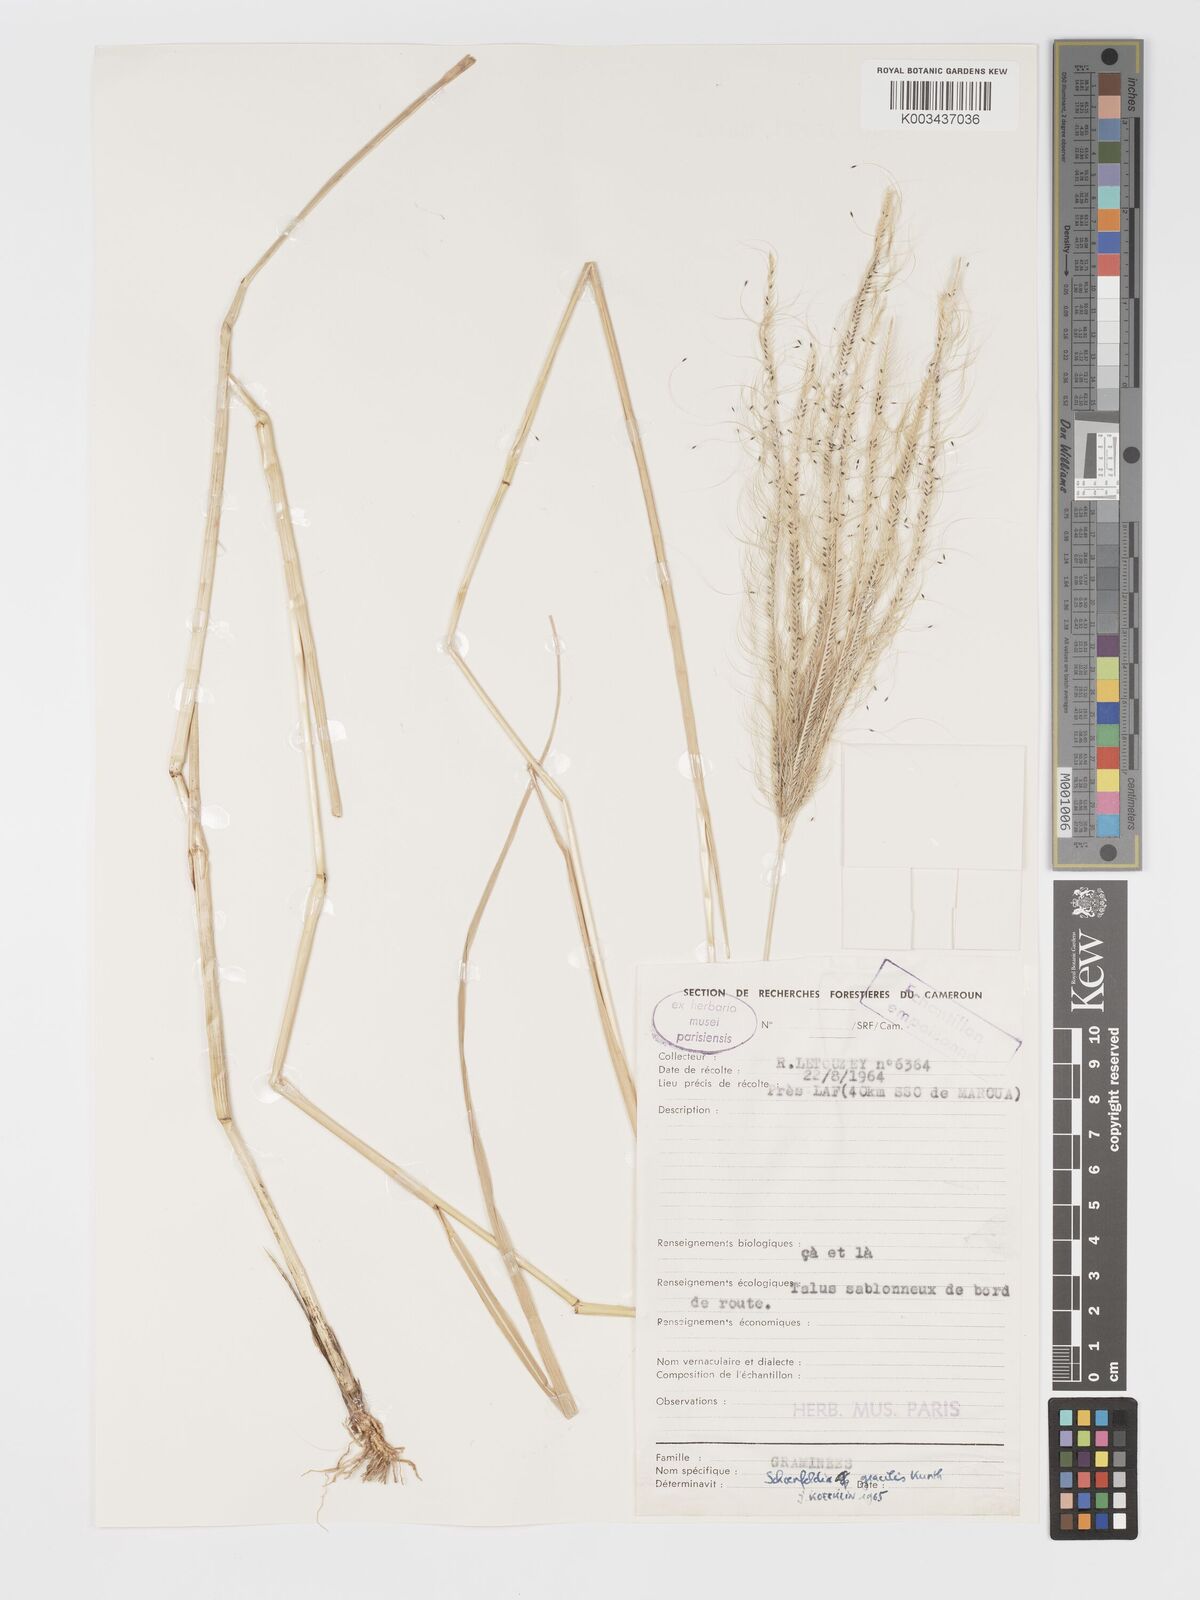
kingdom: Plantae
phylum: Tracheophyta
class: Liliopsida
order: Poales
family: Poaceae
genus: Schoenefeldia
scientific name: Schoenefeldia gracilis
